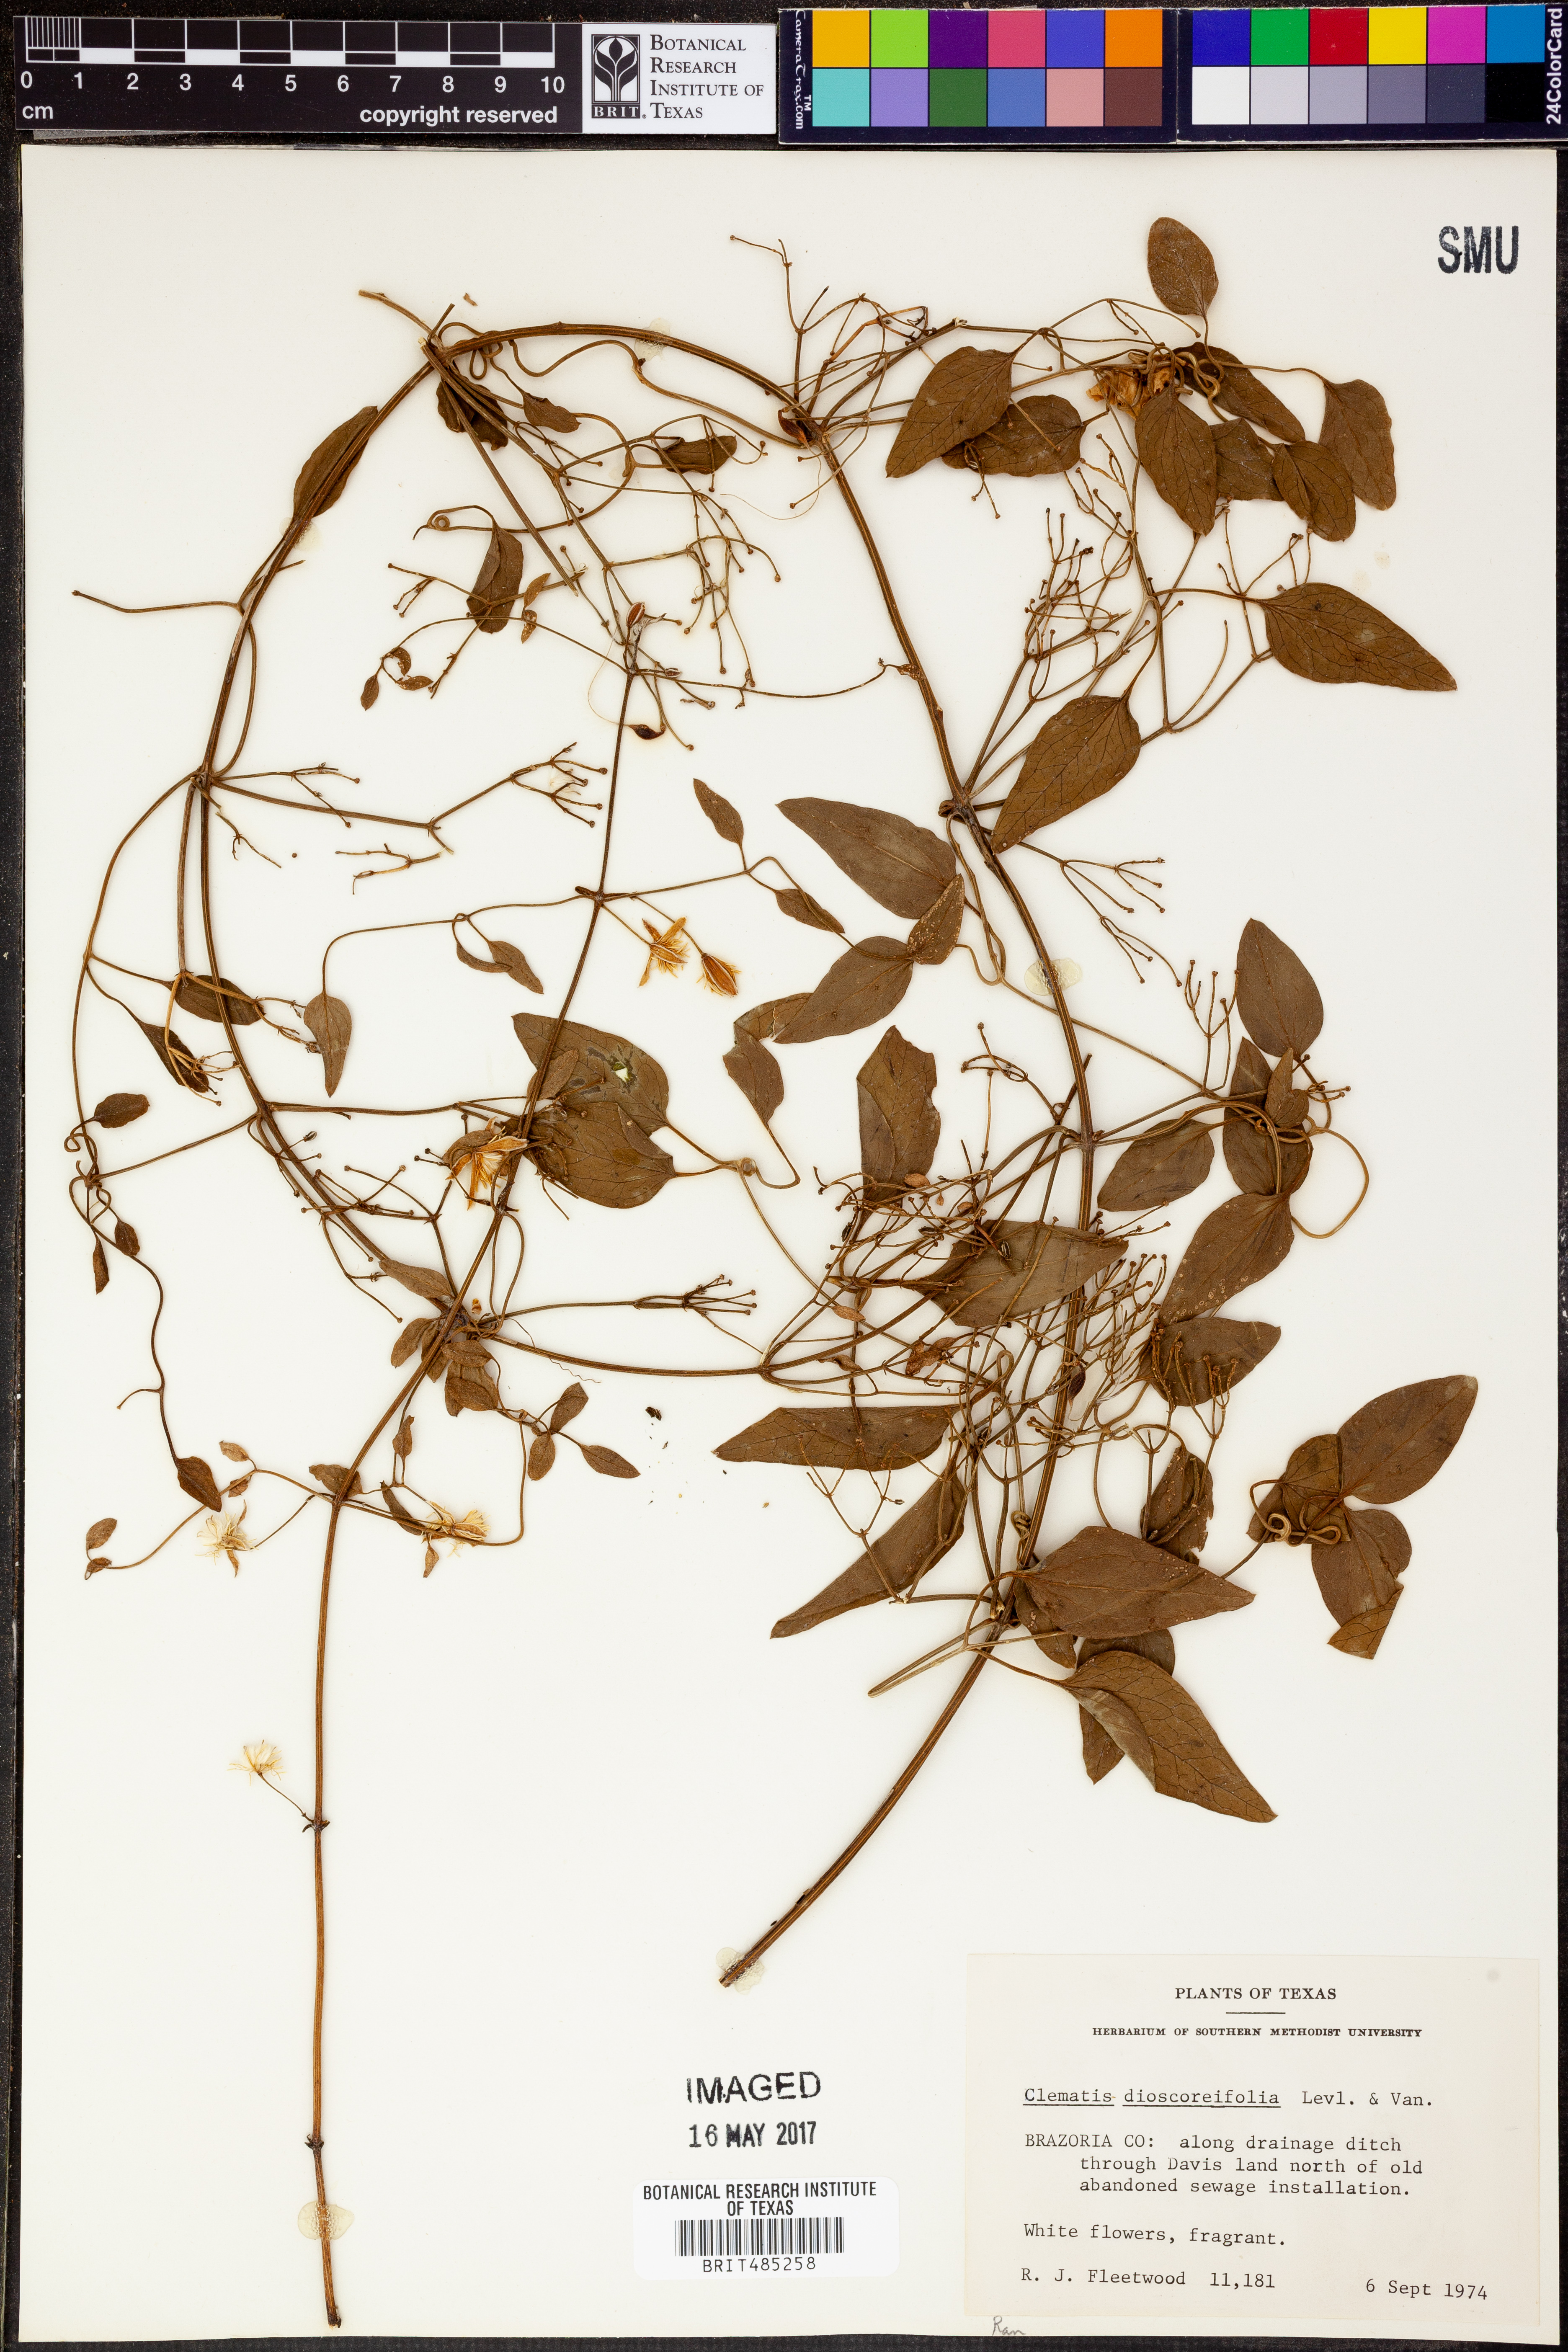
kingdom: Plantae
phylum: Tracheophyta
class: Magnoliopsida
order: Ranunculales
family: Ranunculaceae
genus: Clematis
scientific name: Clematis terniflora
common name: Sweet autumn clematis
